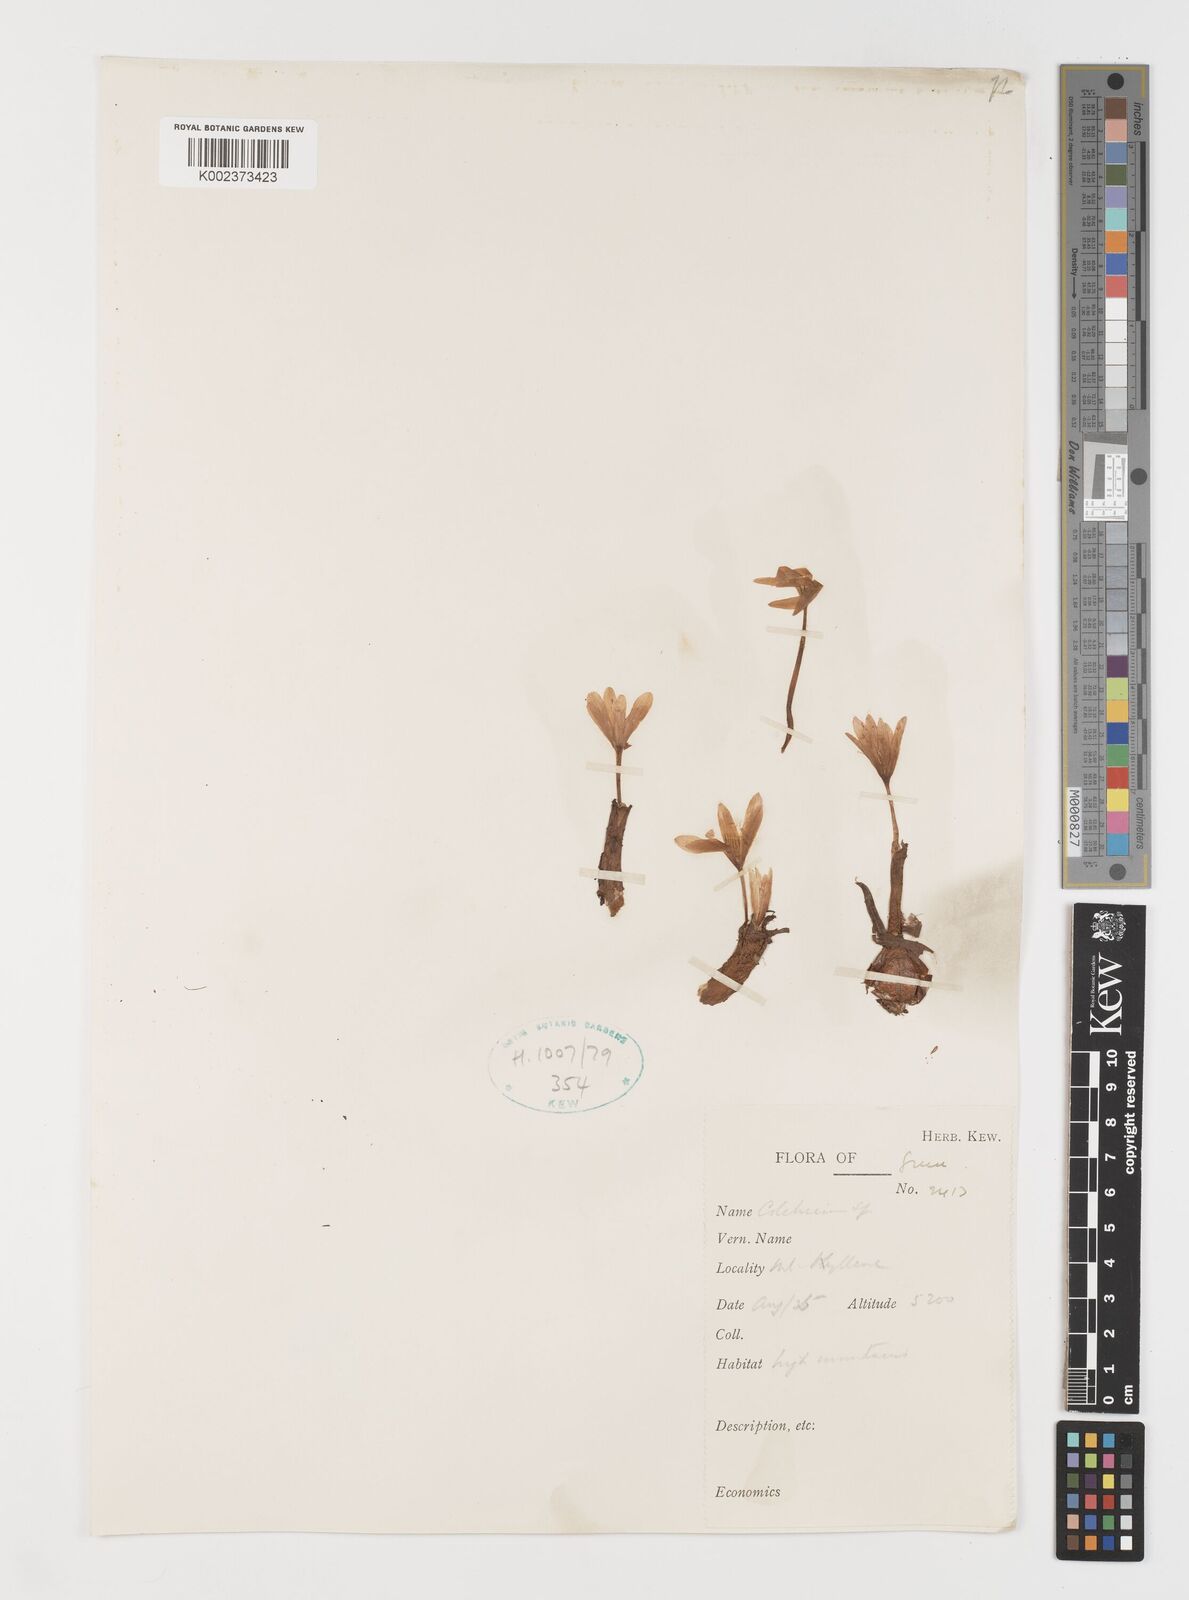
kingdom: Plantae
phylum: Tracheophyta
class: Liliopsida
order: Liliales
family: Colchicaceae
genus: Colchicum
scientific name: Colchicum
